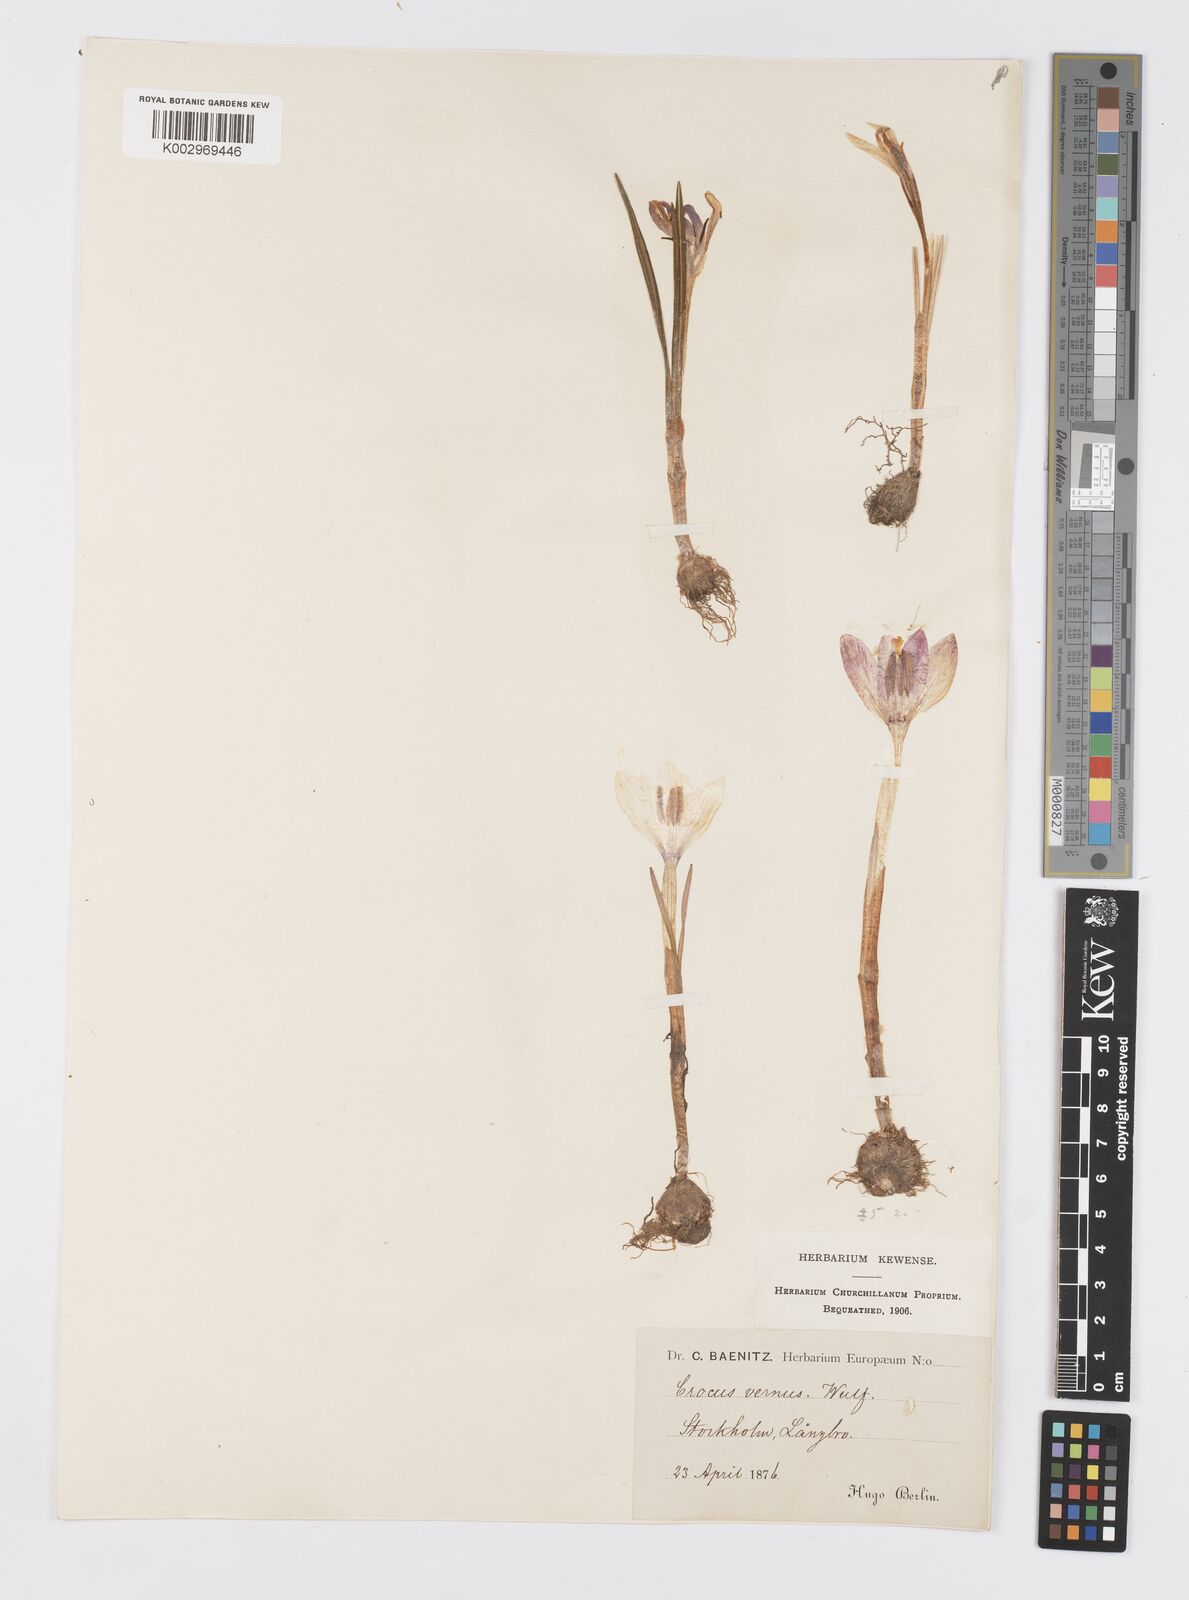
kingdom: Plantae
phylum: Tracheophyta
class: Liliopsida
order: Asparagales
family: Iridaceae
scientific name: Iridaceae
